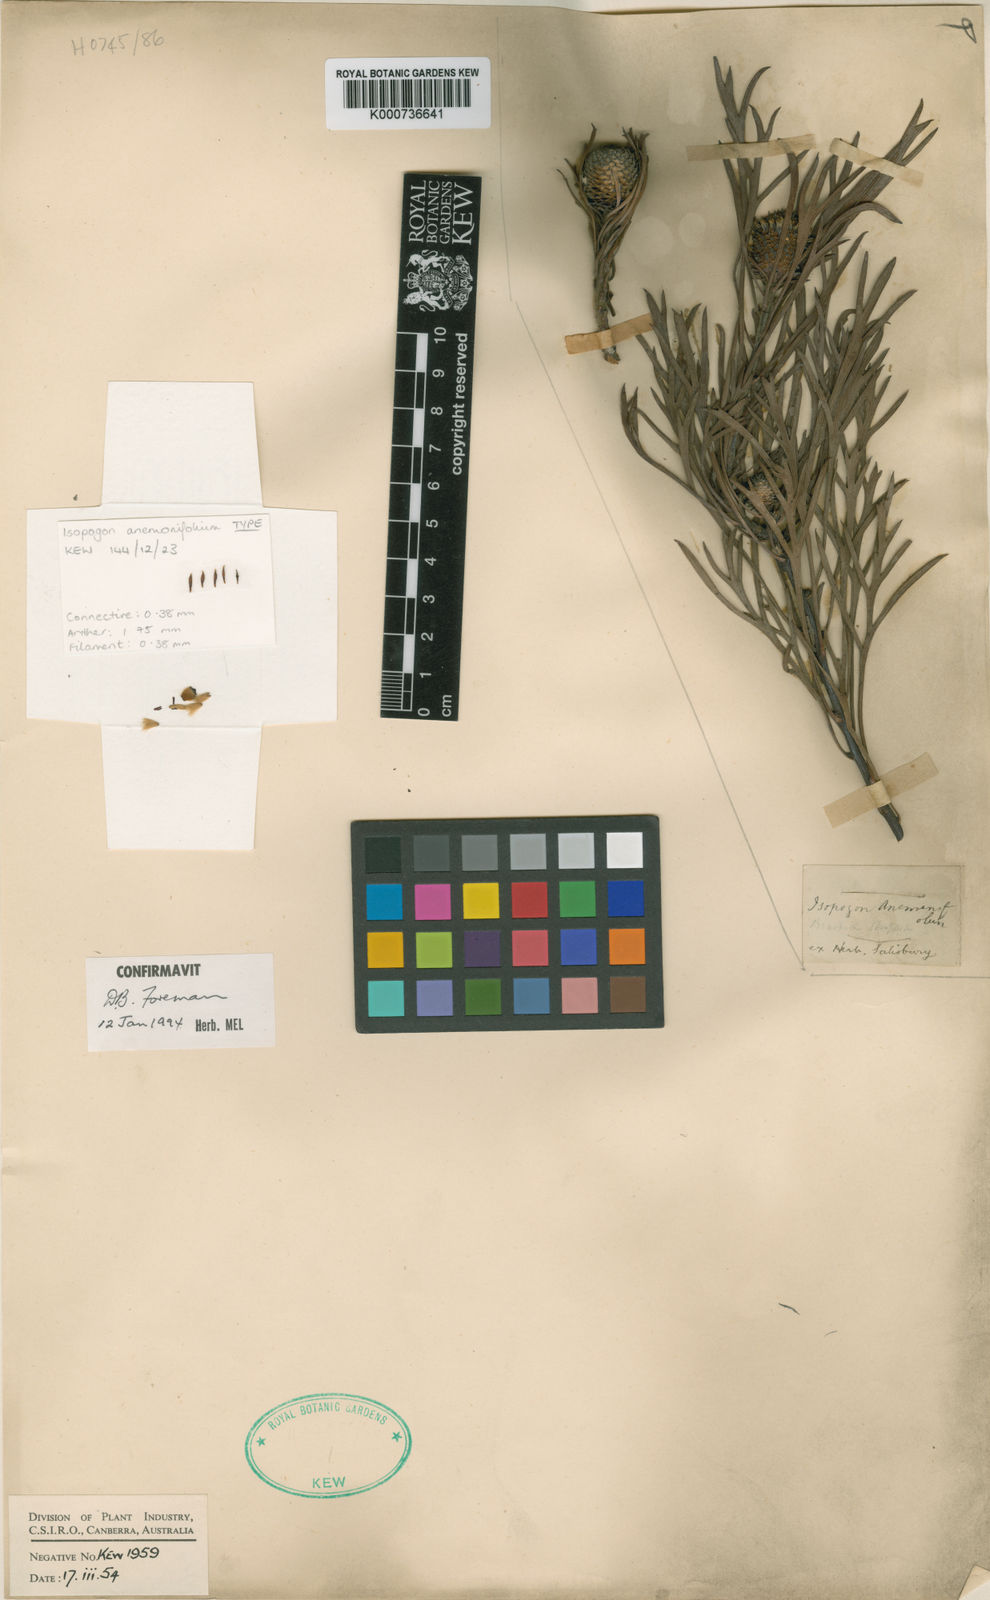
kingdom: Plantae
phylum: Tracheophyta
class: Magnoliopsida
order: Proteales
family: Proteaceae
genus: Isopogon
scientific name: Isopogon anemonifolius
